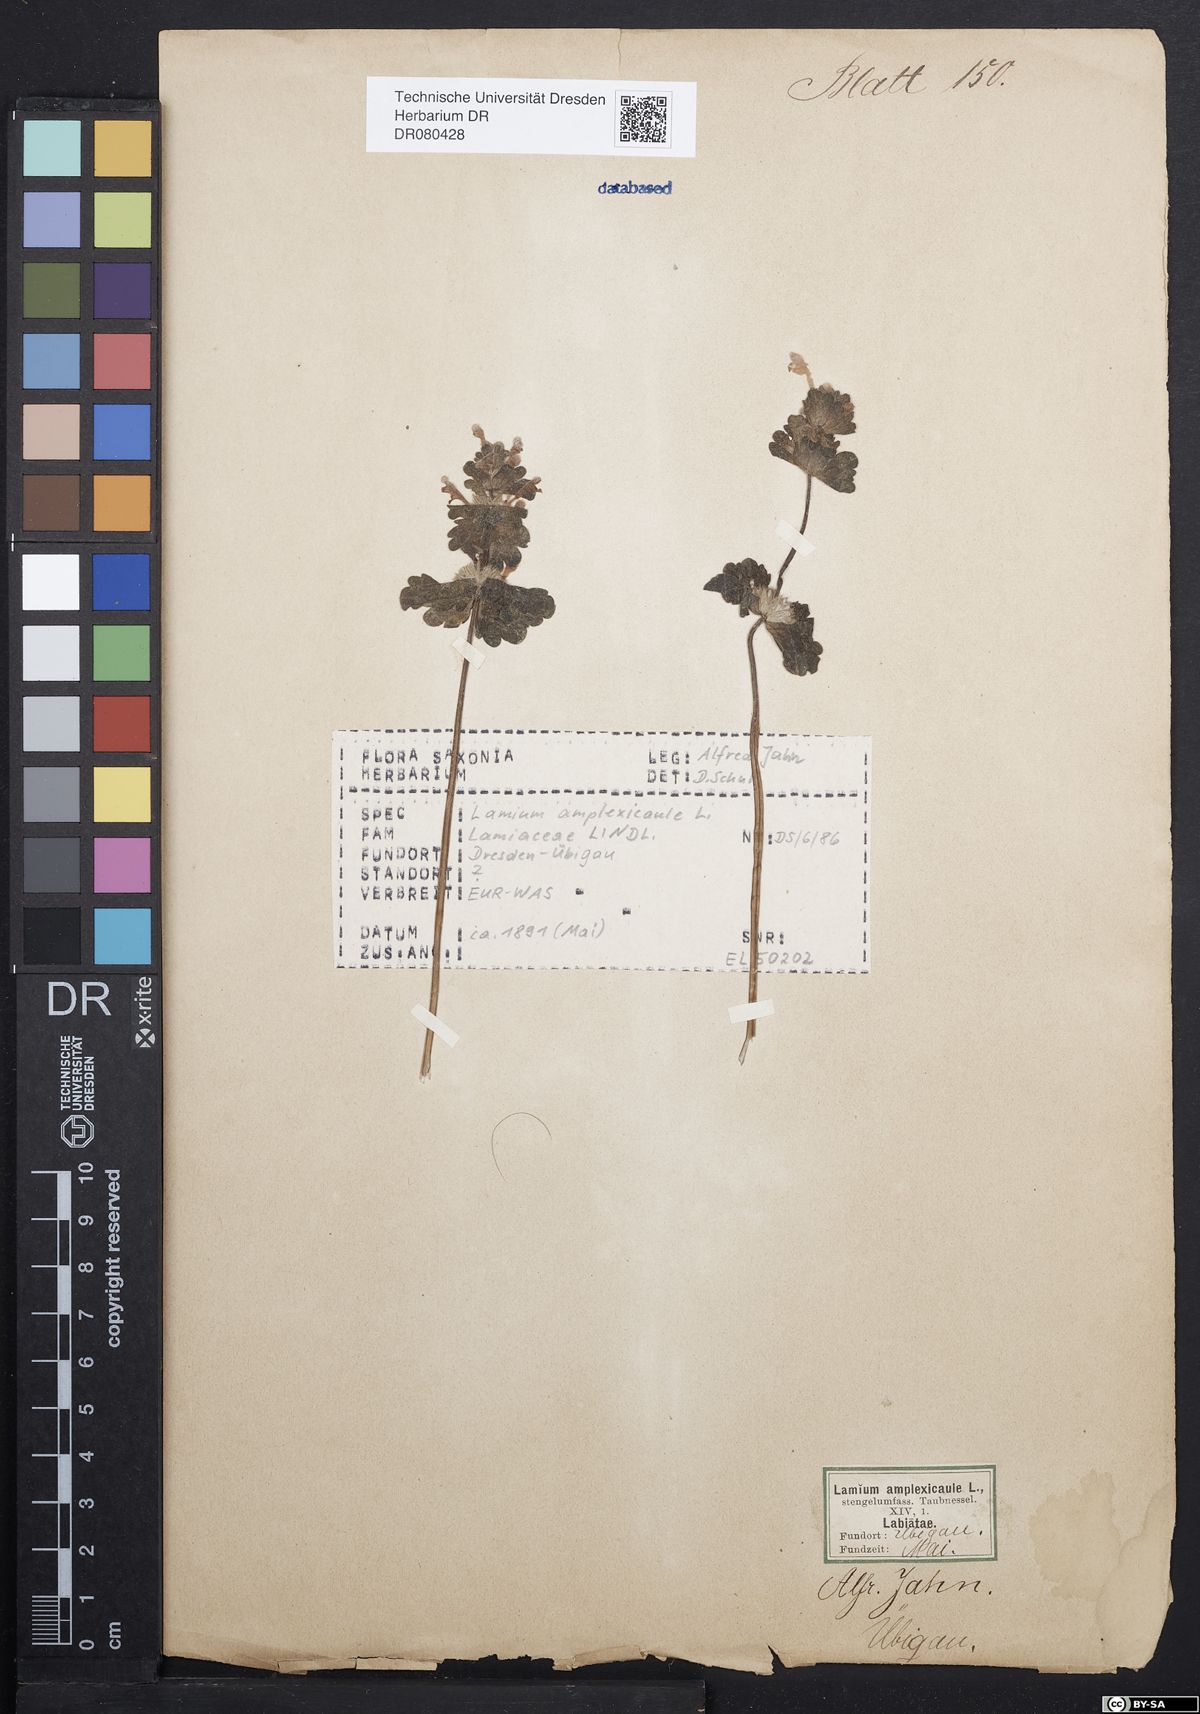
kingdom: Plantae
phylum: Tracheophyta
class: Magnoliopsida
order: Lamiales
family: Lamiaceae
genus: Lamium
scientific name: Lamium amplexicaule
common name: Henbit dead-nettle
